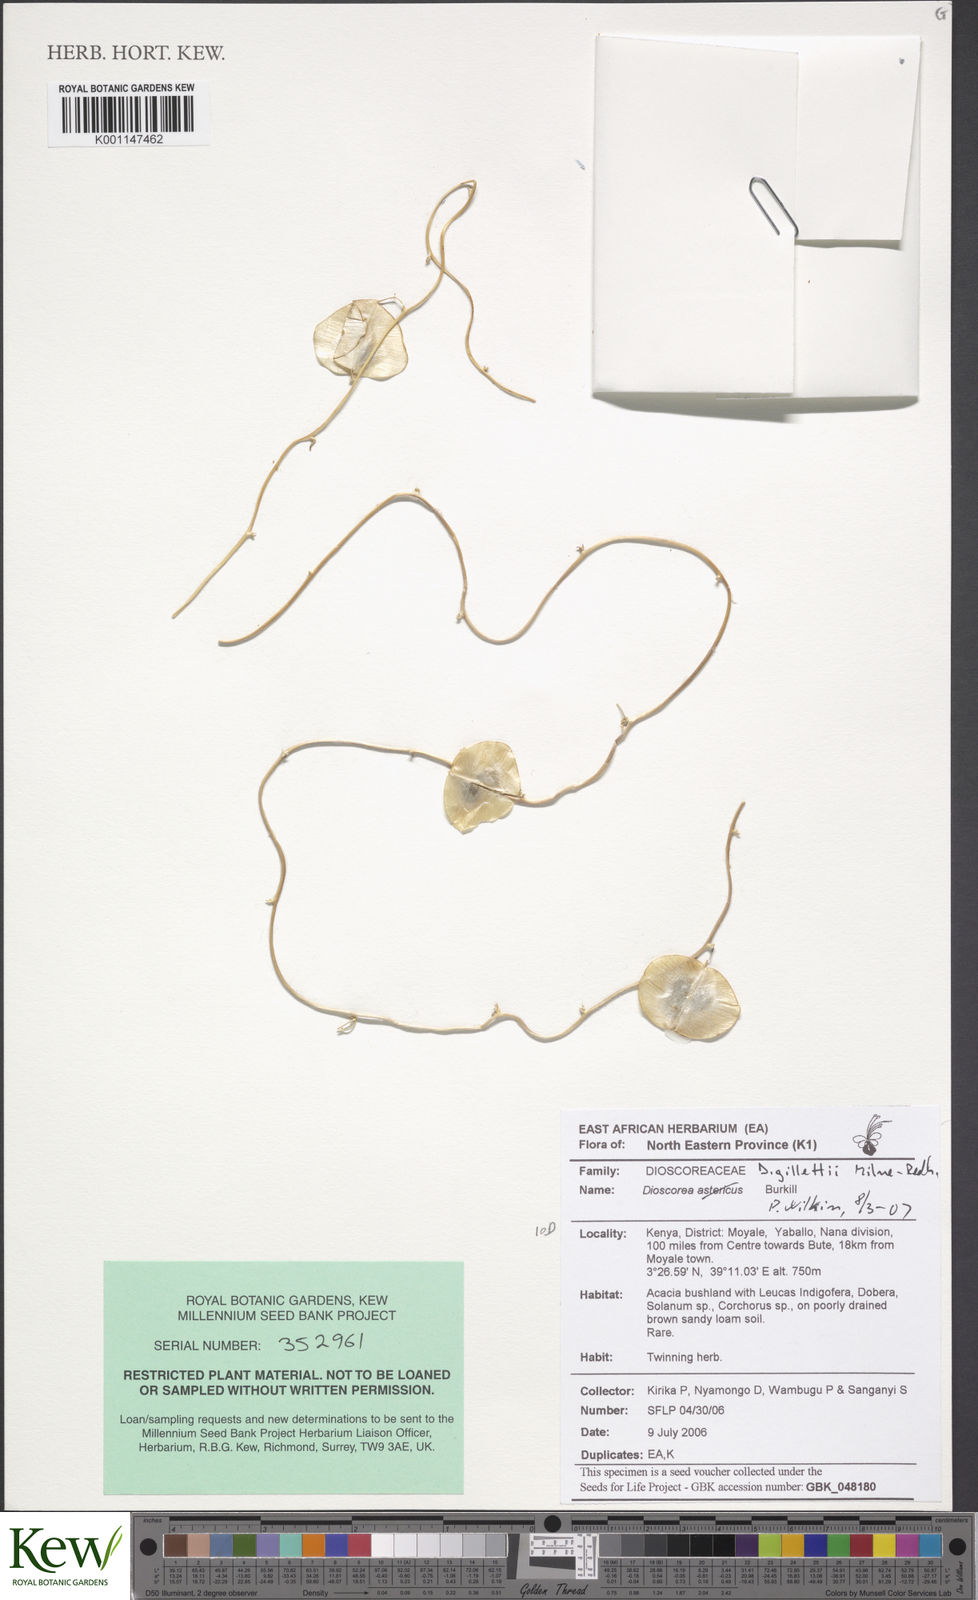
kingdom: Plantae
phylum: Tracheophyta
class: Liliopsida
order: Dioscoreales
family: Dioscoreaceae
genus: Dioscorea
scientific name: Dioscorea gillettii
